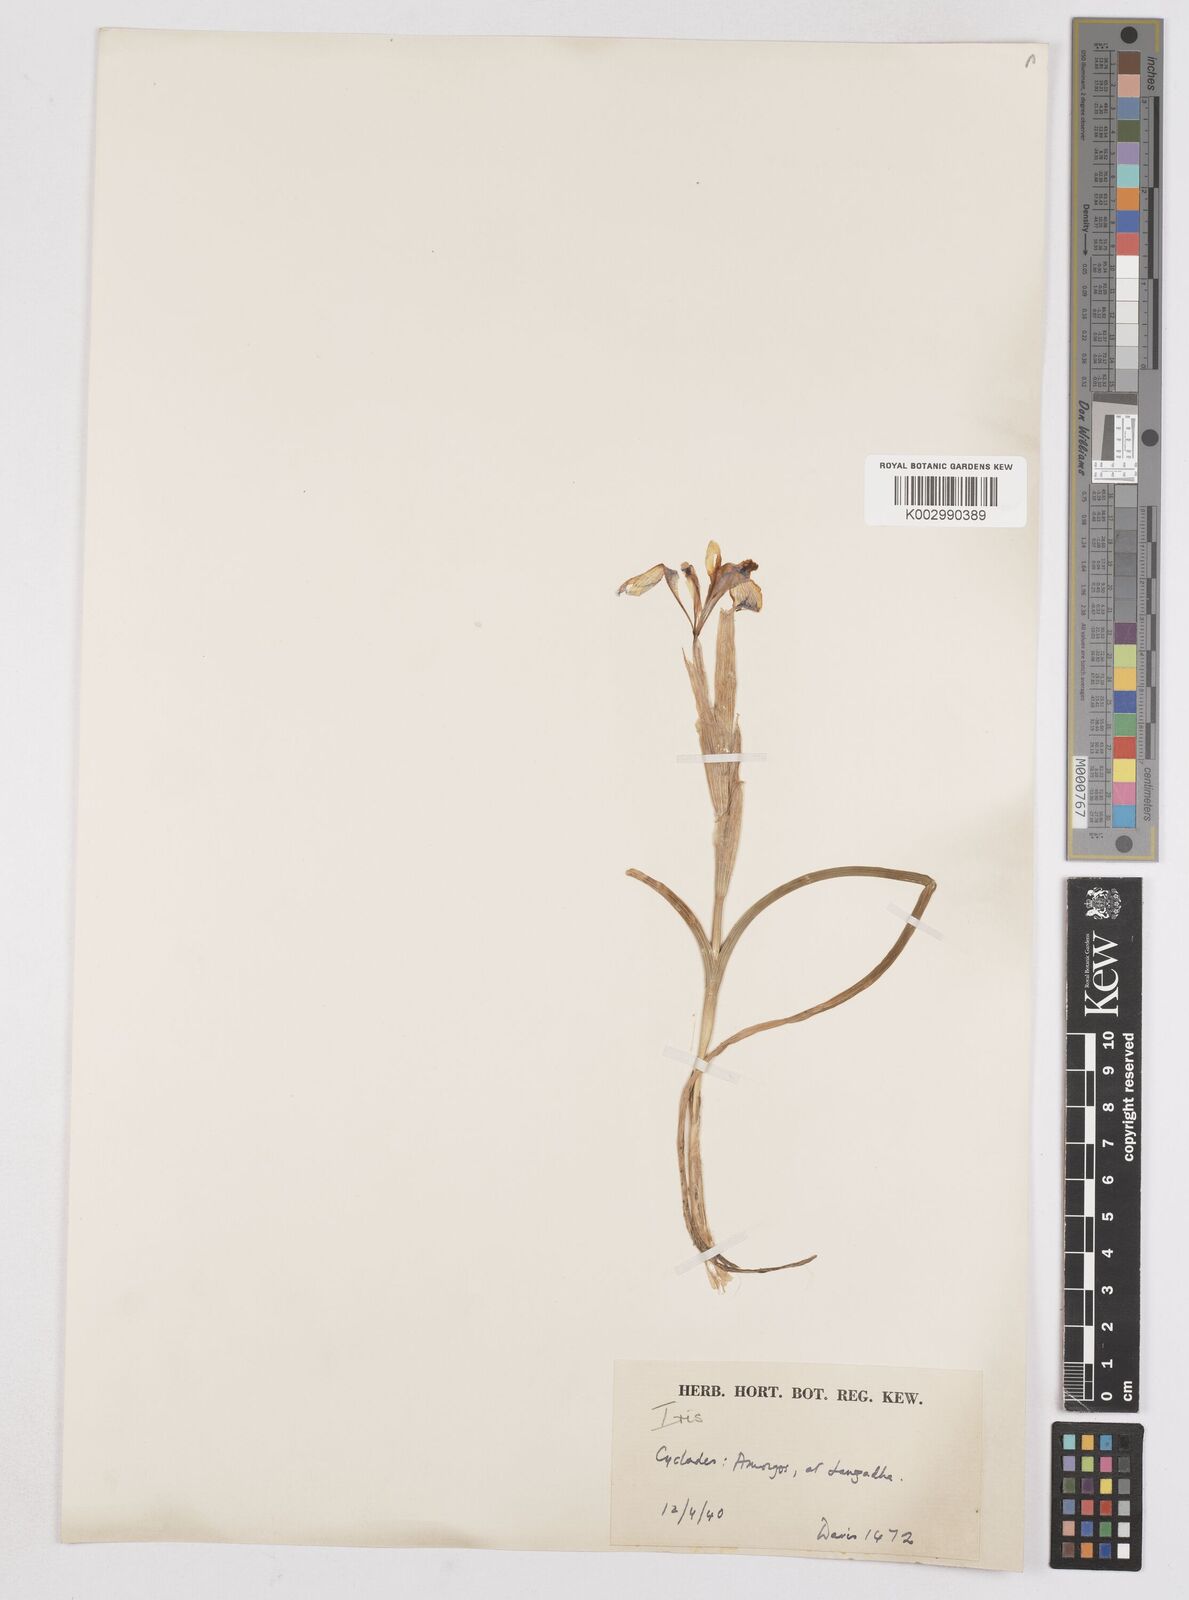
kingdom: Plantae
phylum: Tracheophyta
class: Liliopsida
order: Asparagales
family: Iridaceae
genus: Moraea
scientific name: Moraea sisyrinchium
